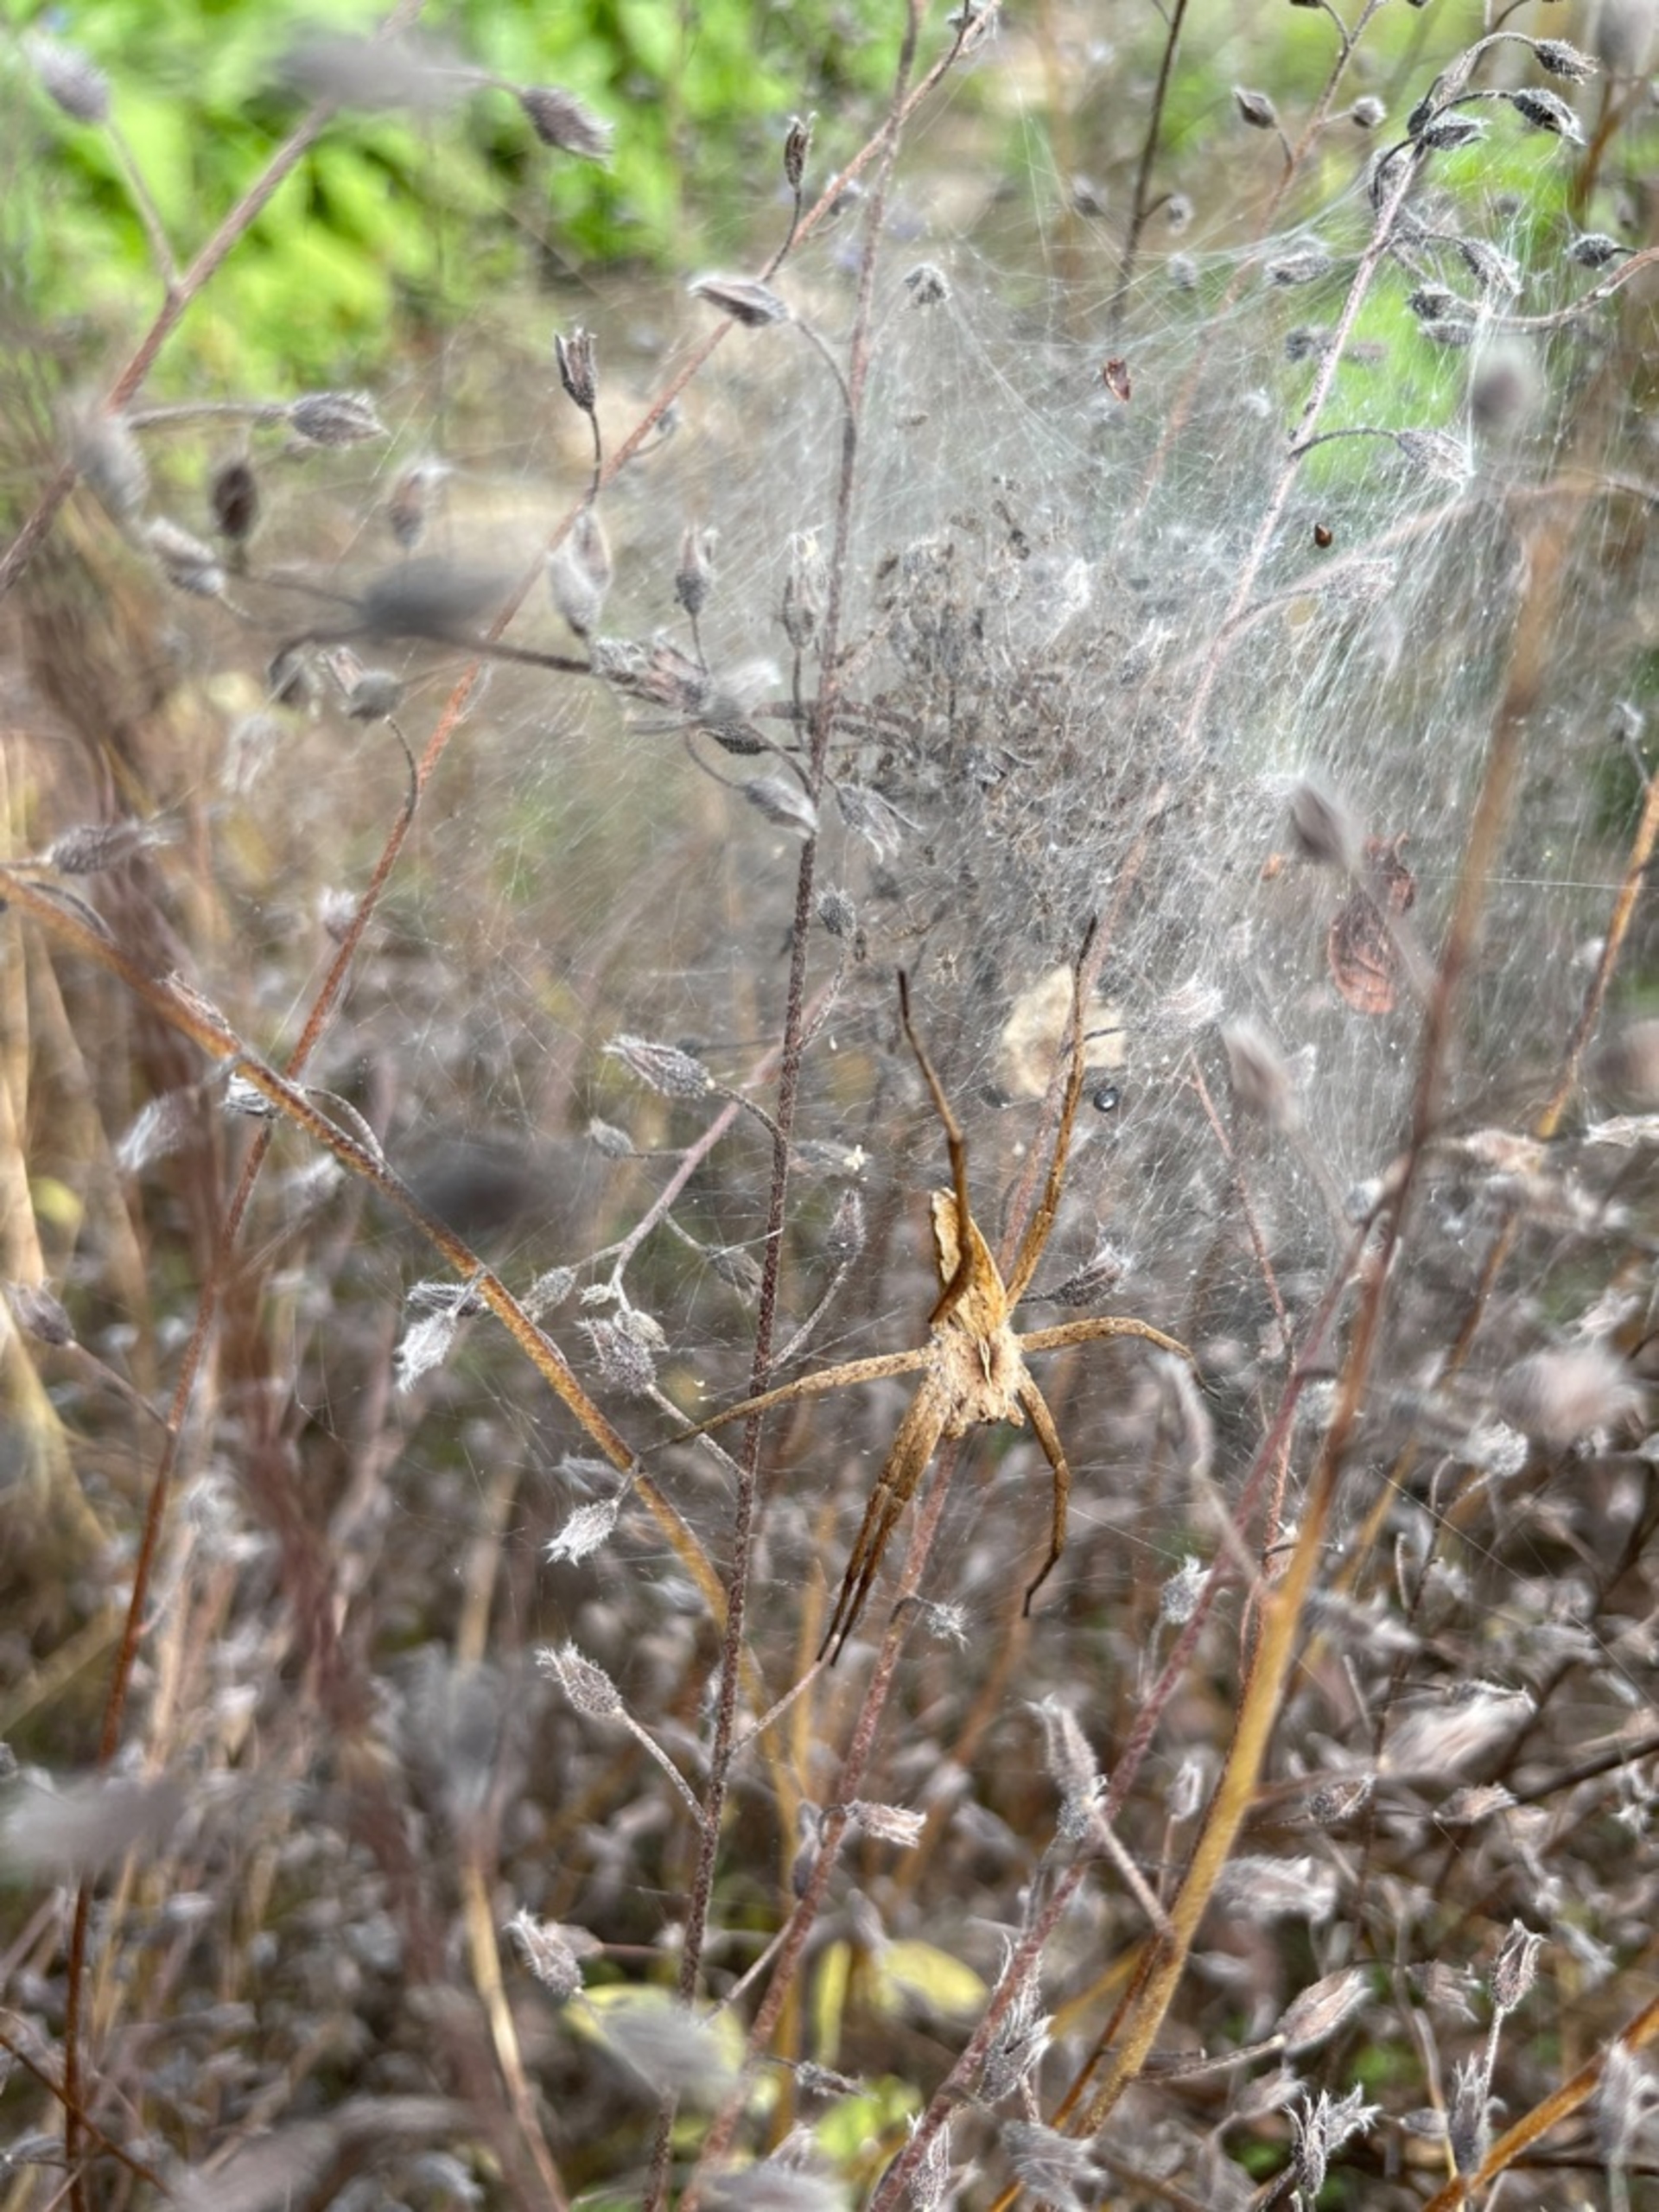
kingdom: Animalia
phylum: Arthropoda
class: Arachnida
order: Araneae
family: Pisauridae
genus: Pisaura
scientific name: Pisaura mirabilis
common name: Almindelig rovedderkop
